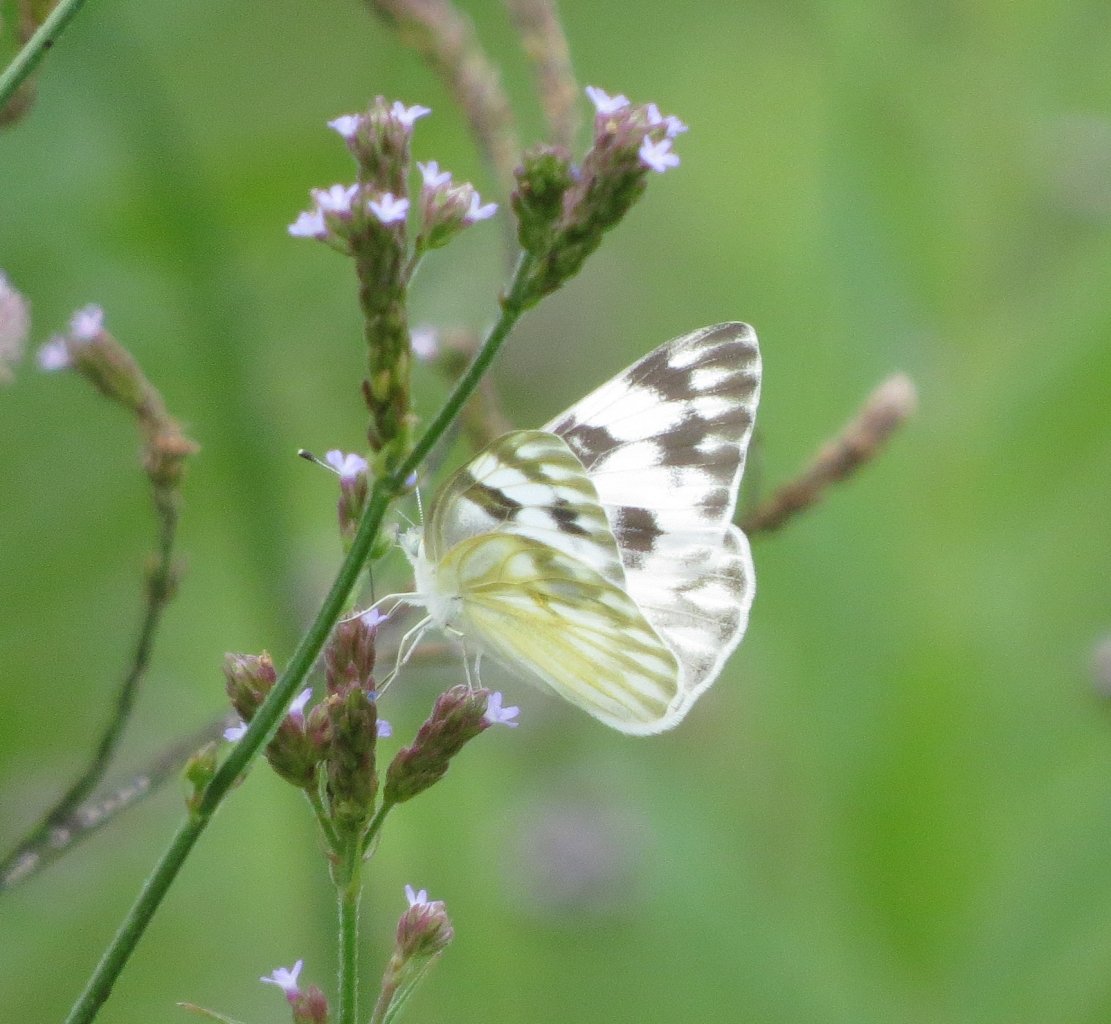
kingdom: Animalia
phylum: Arthropoda
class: Insecta
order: Lepidoptera
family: Pieridae
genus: Pontia
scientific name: Pontia protodice
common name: Checkered White
